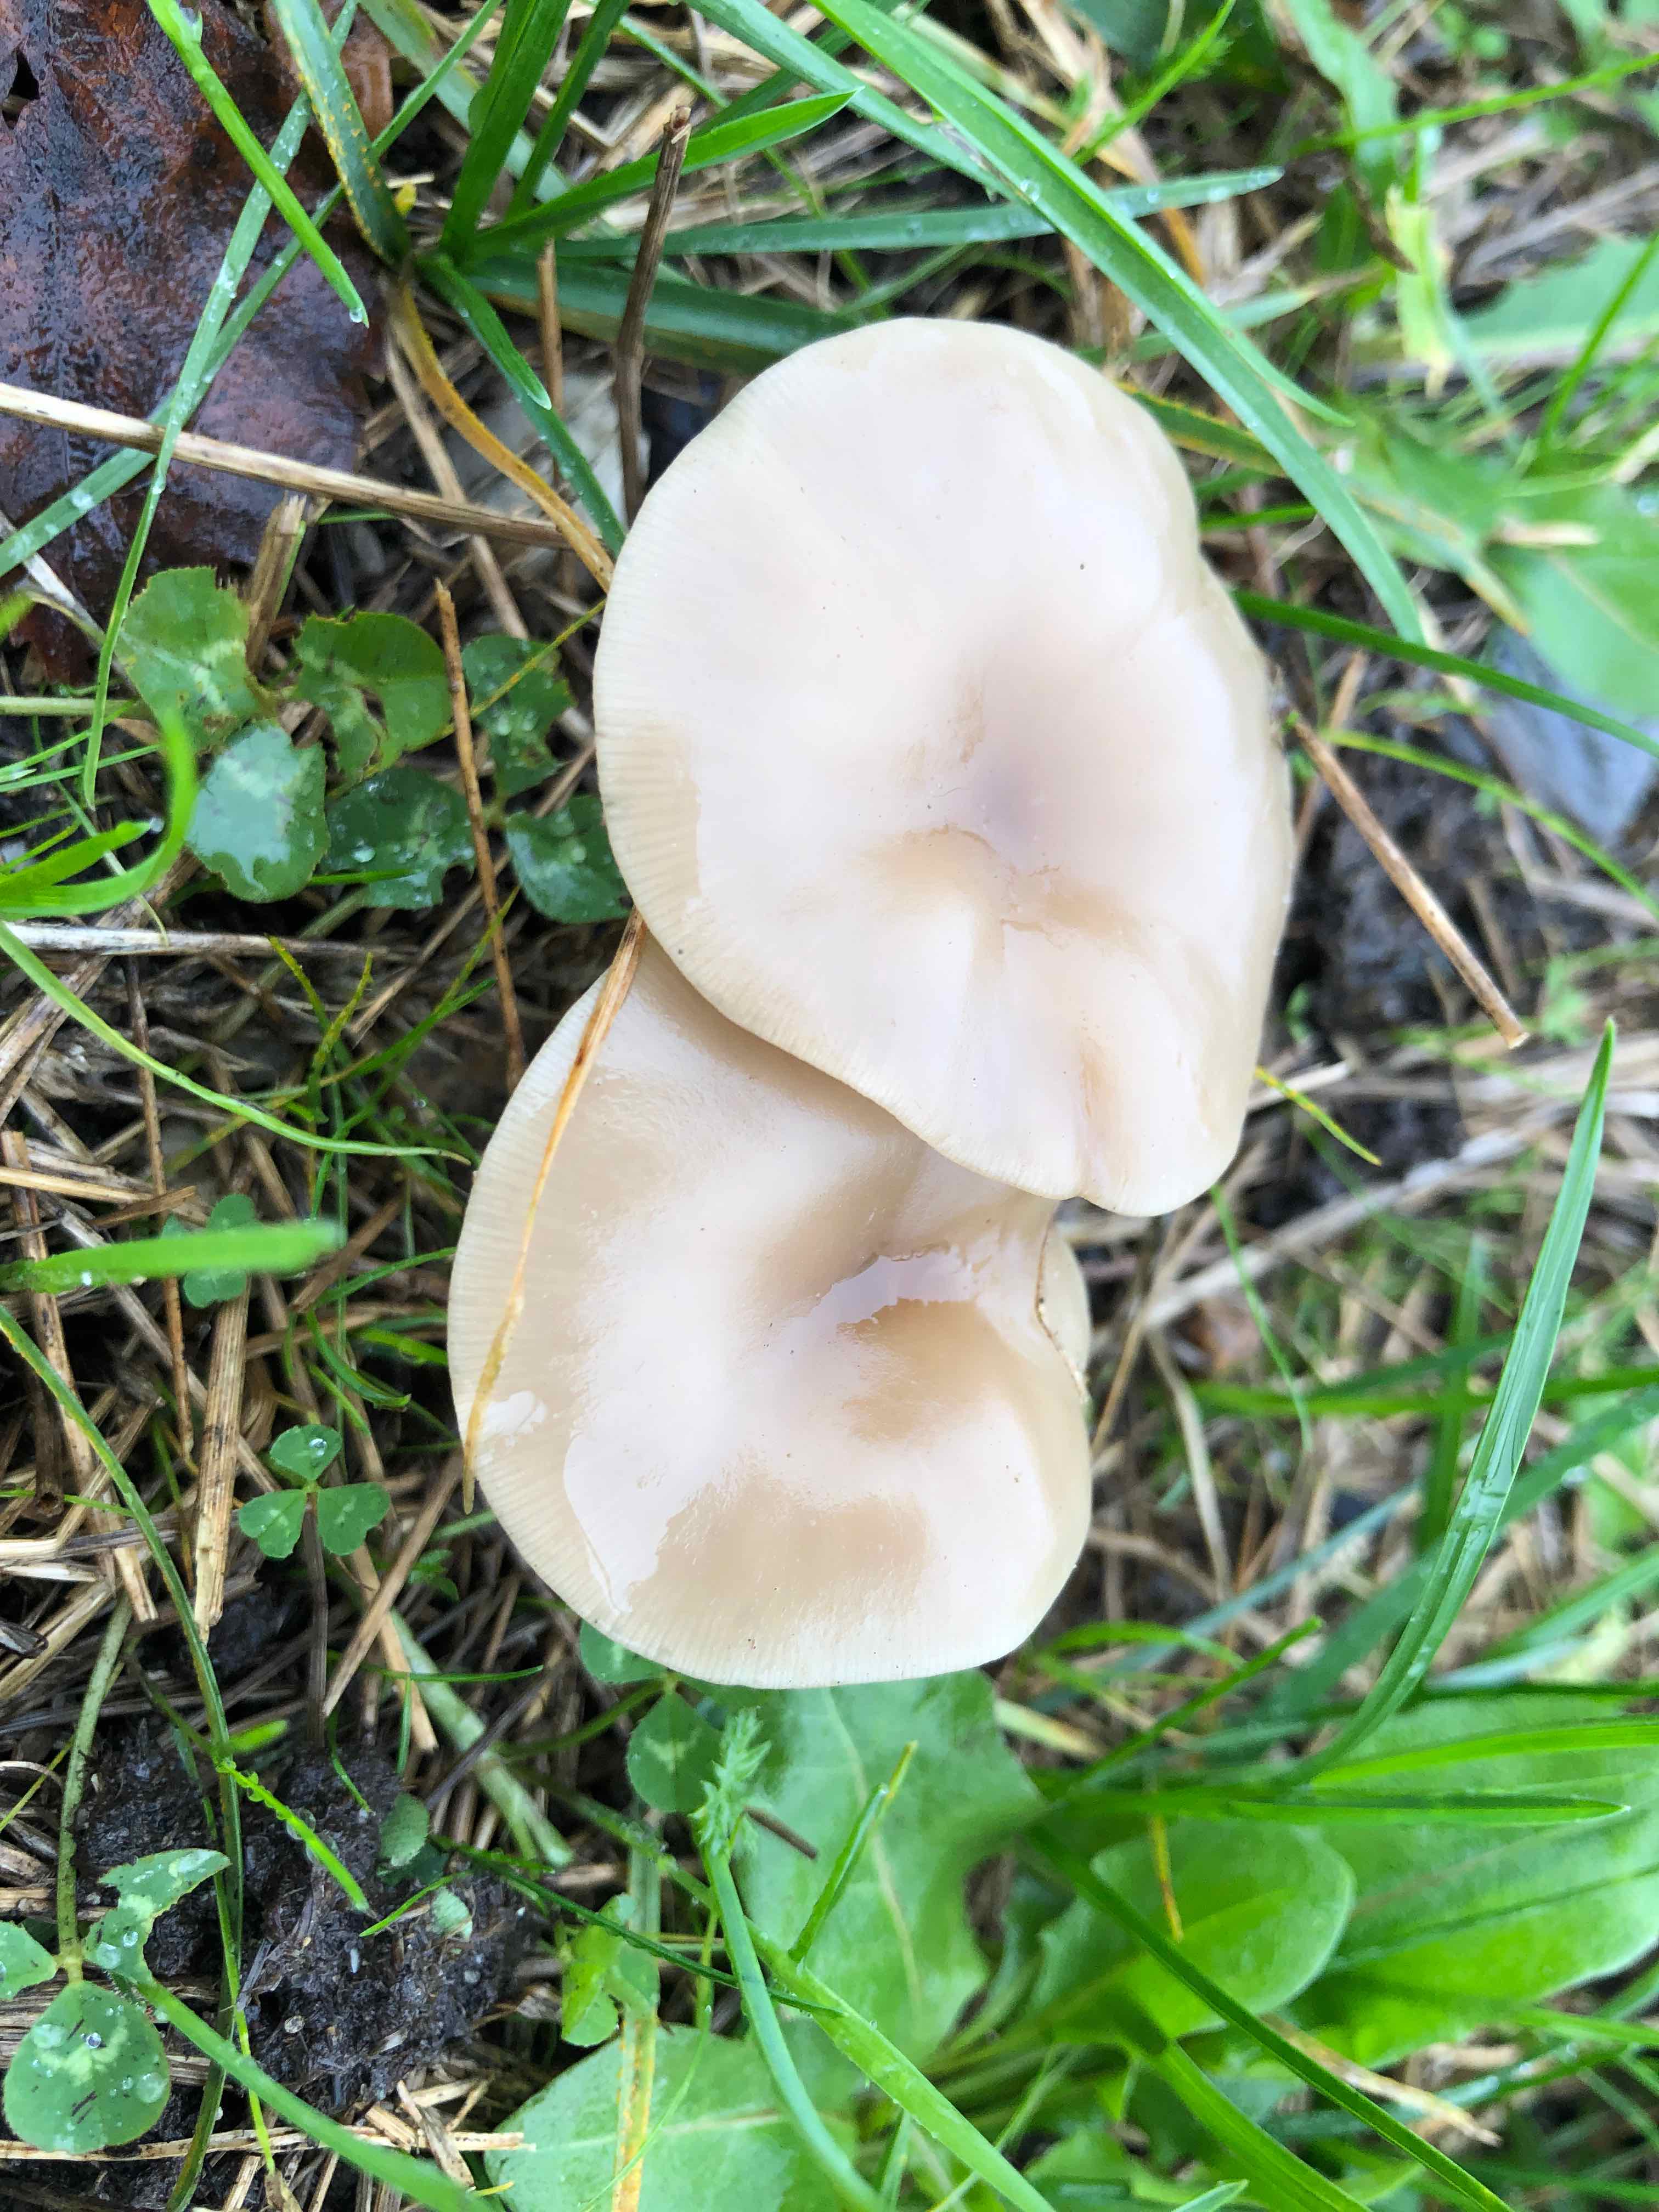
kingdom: Fungi
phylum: Basidiomycota
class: Agaricomycetes
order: Agaricales
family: Tricholomataceae
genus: Clitocybe
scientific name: Clitocybe
